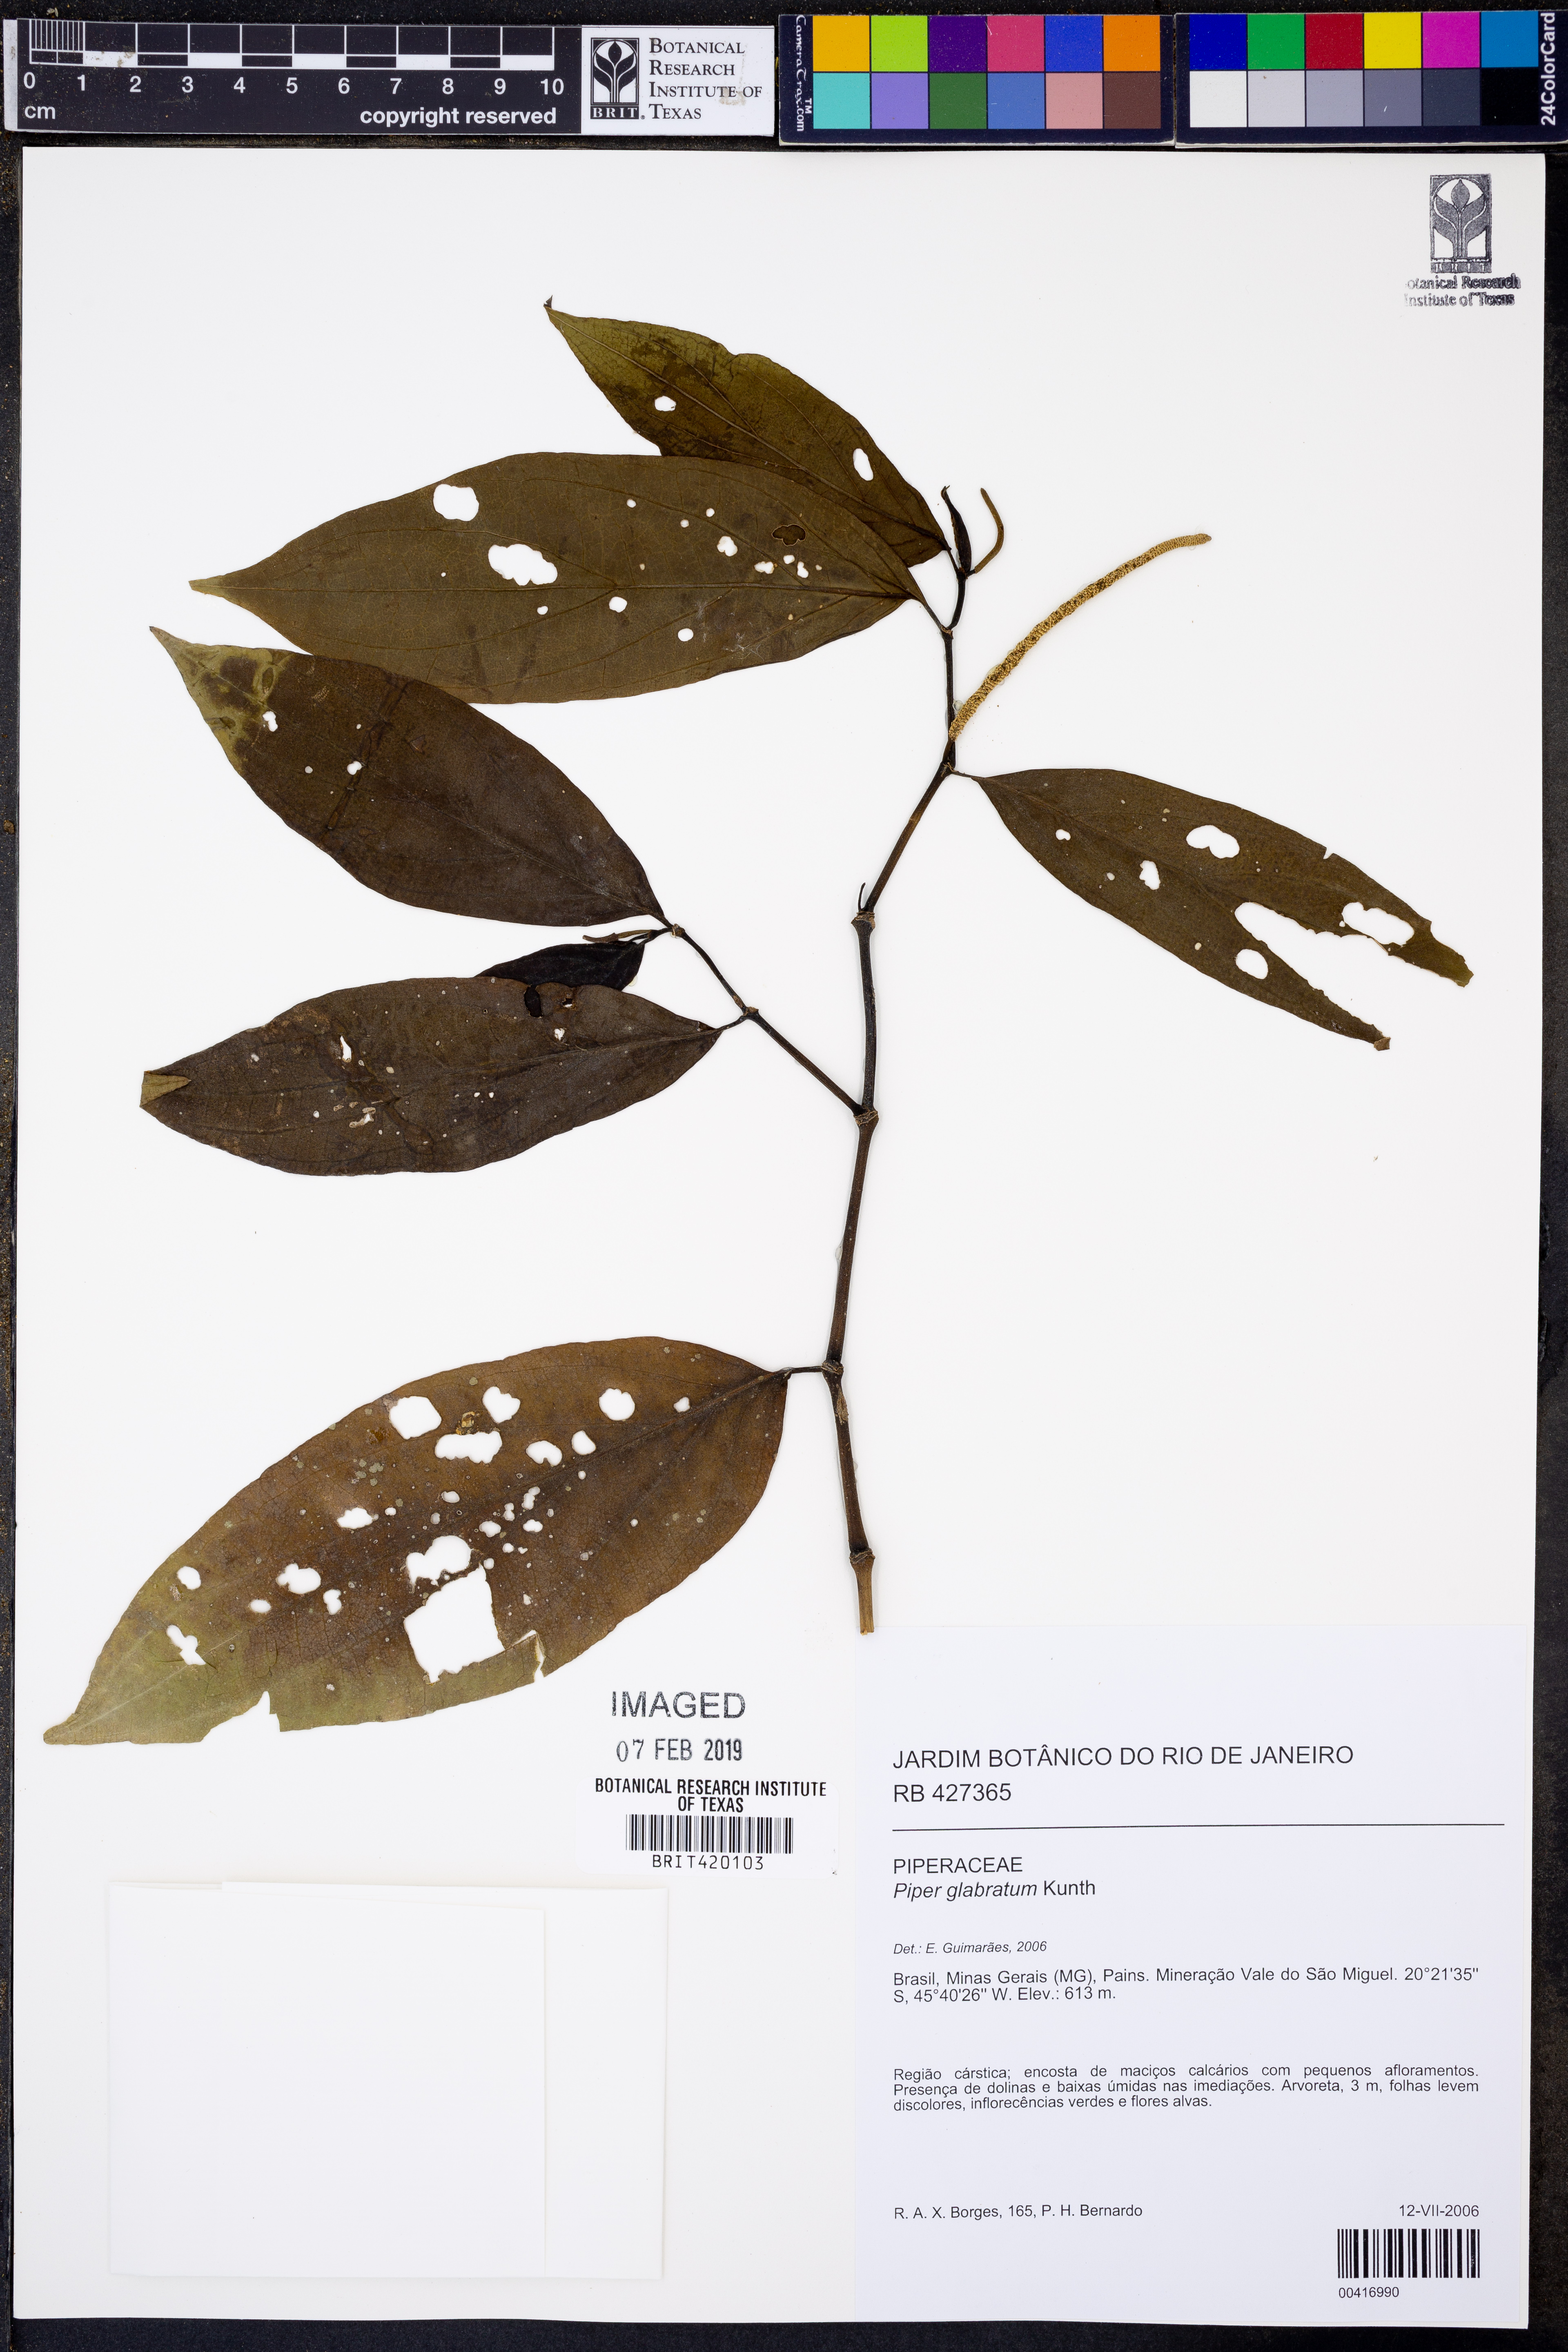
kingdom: Plantae
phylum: Tracheophyta
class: Magnoliopsida
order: Piperales
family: Piperaceae
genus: Piper
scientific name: Piper secundum
